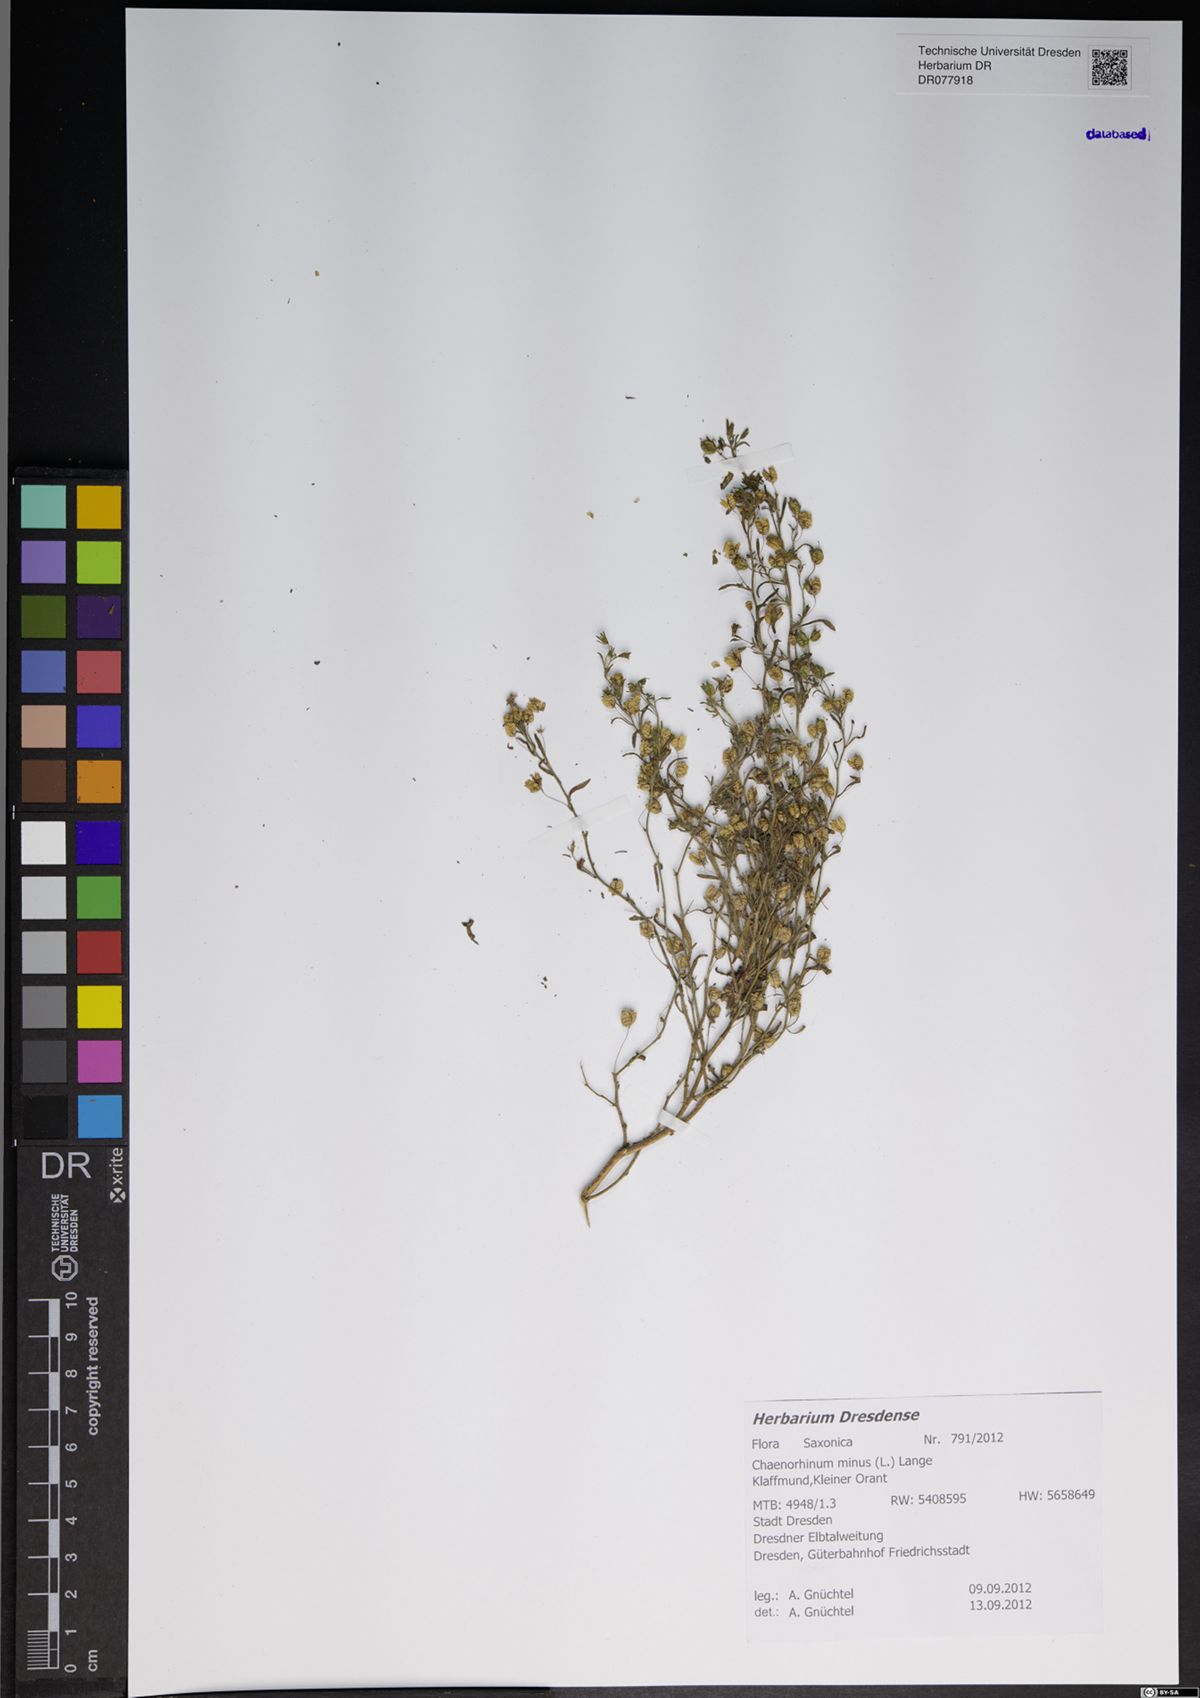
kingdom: Plantae
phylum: Tracheophyta
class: Magnoliopsida
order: Lamiales
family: Plantaginaceae
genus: Chaenorhinum
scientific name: Chaenorhinum minus
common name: Dwarf snapdragon
